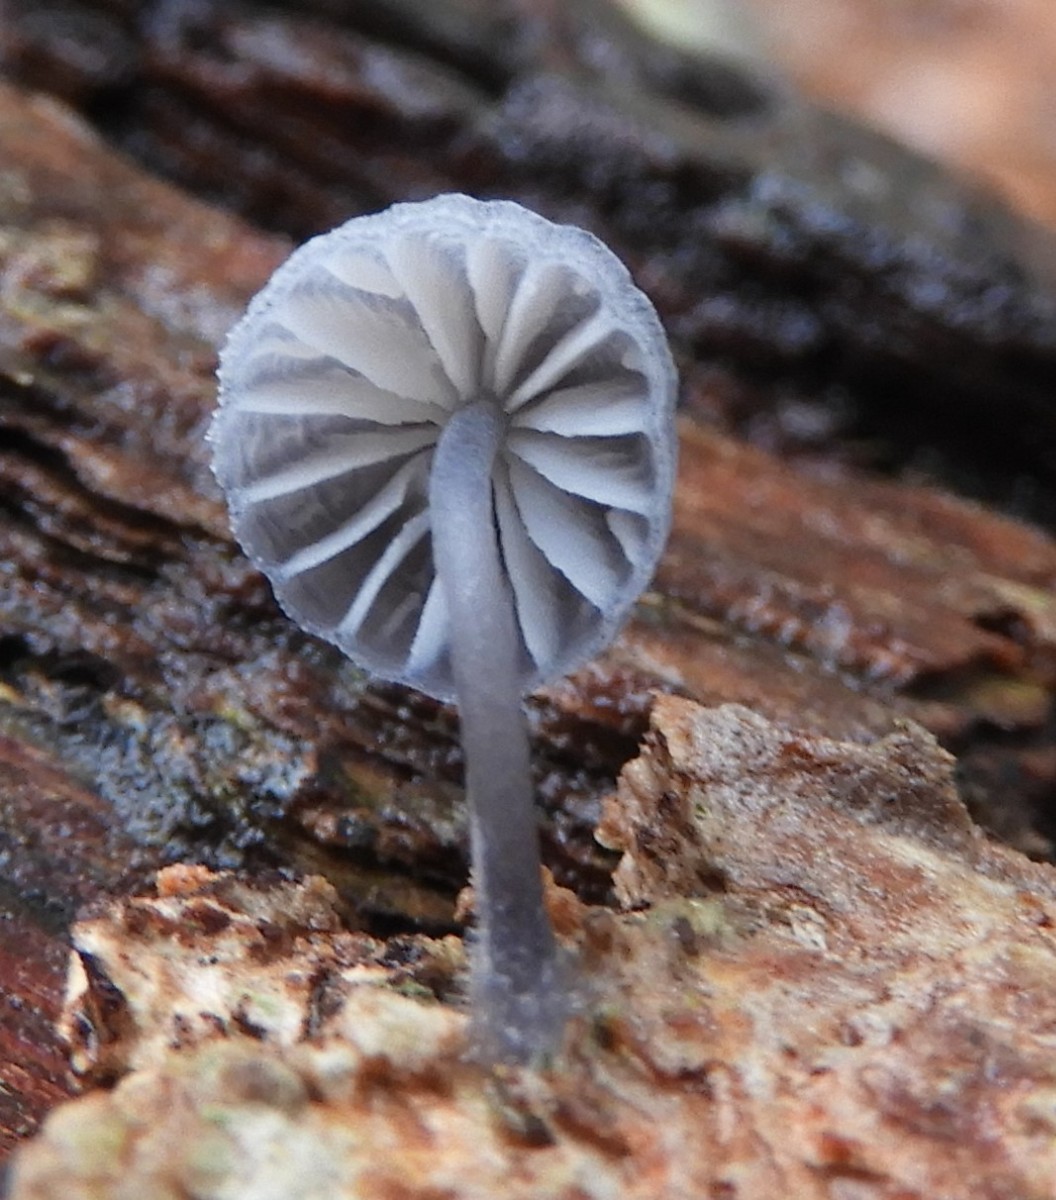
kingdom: Fungi
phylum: Basidiomycota
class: Agaricomycetes
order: Agaricales
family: Mycenaceae
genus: Mycena
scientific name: Mycena pseudocorticola
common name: gråblå bark-huesvamp
